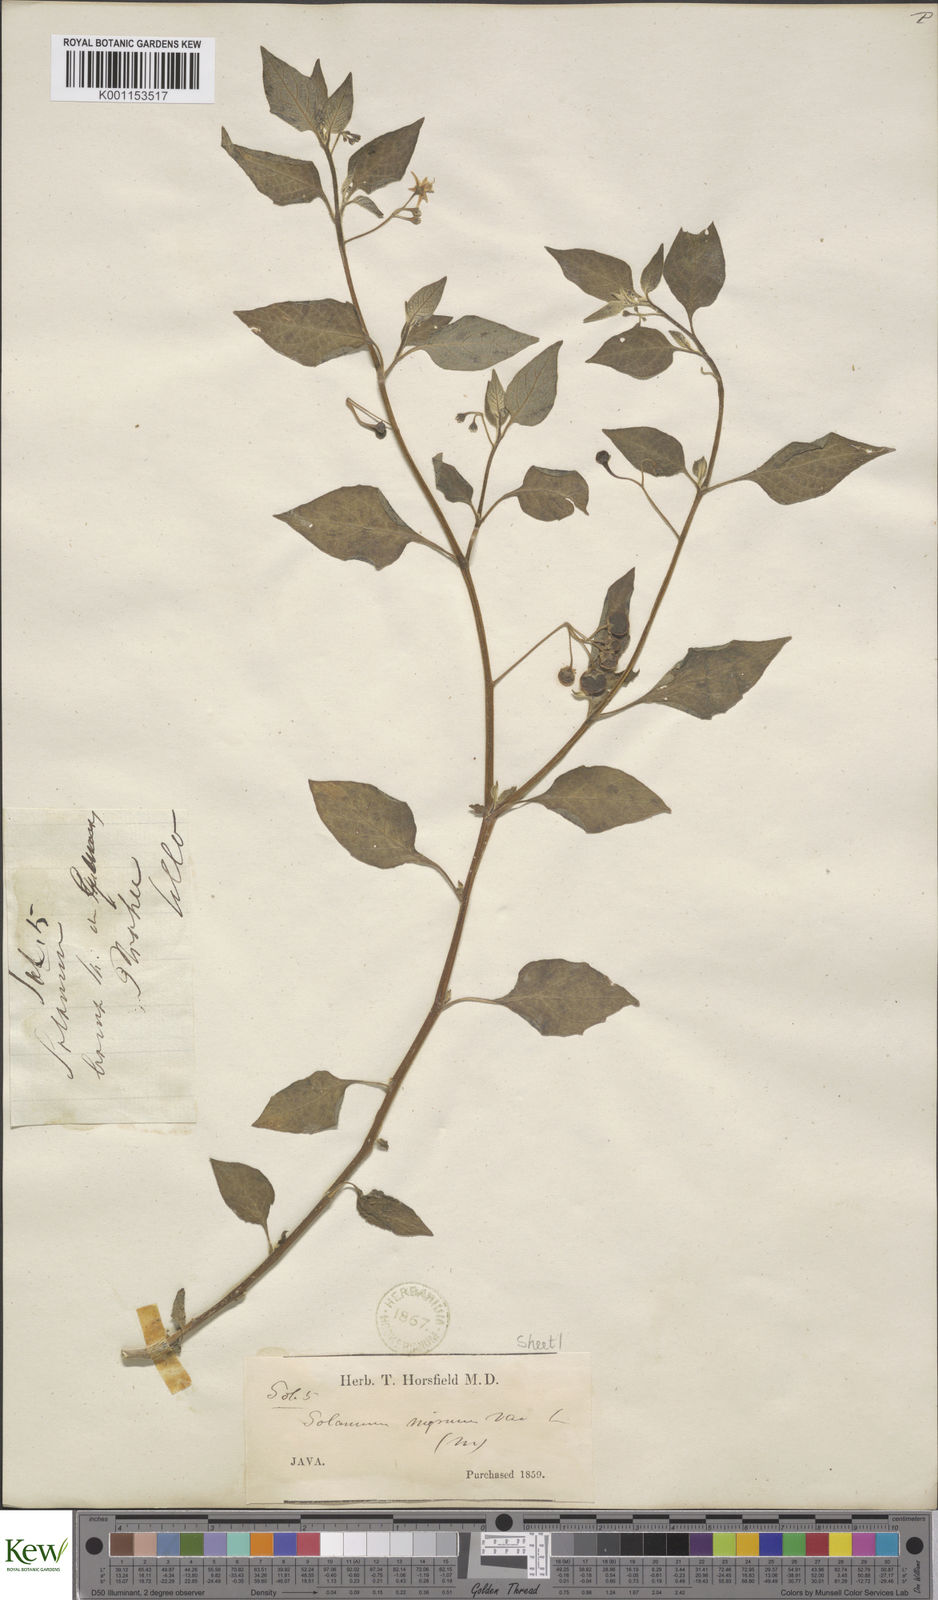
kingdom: Plantae
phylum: Tracheophyta
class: Magnoliopsida
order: Solanales
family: Solanaceae
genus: Solanum
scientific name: Solanum nigrum
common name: Black nightshade
